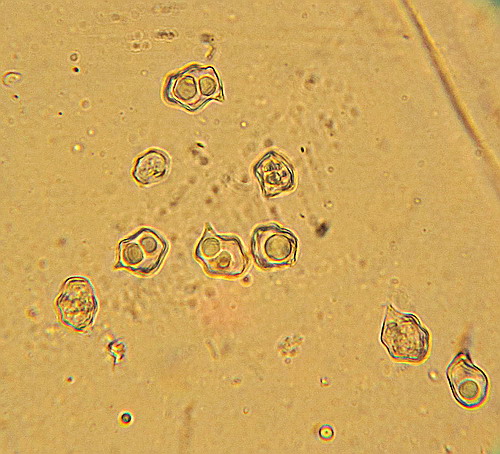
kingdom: Fungi
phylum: Basidiomycota
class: Agaricomycetes
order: Agaricales
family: Entolomataceae
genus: Entoloma
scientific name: Entoloma subradiatum
